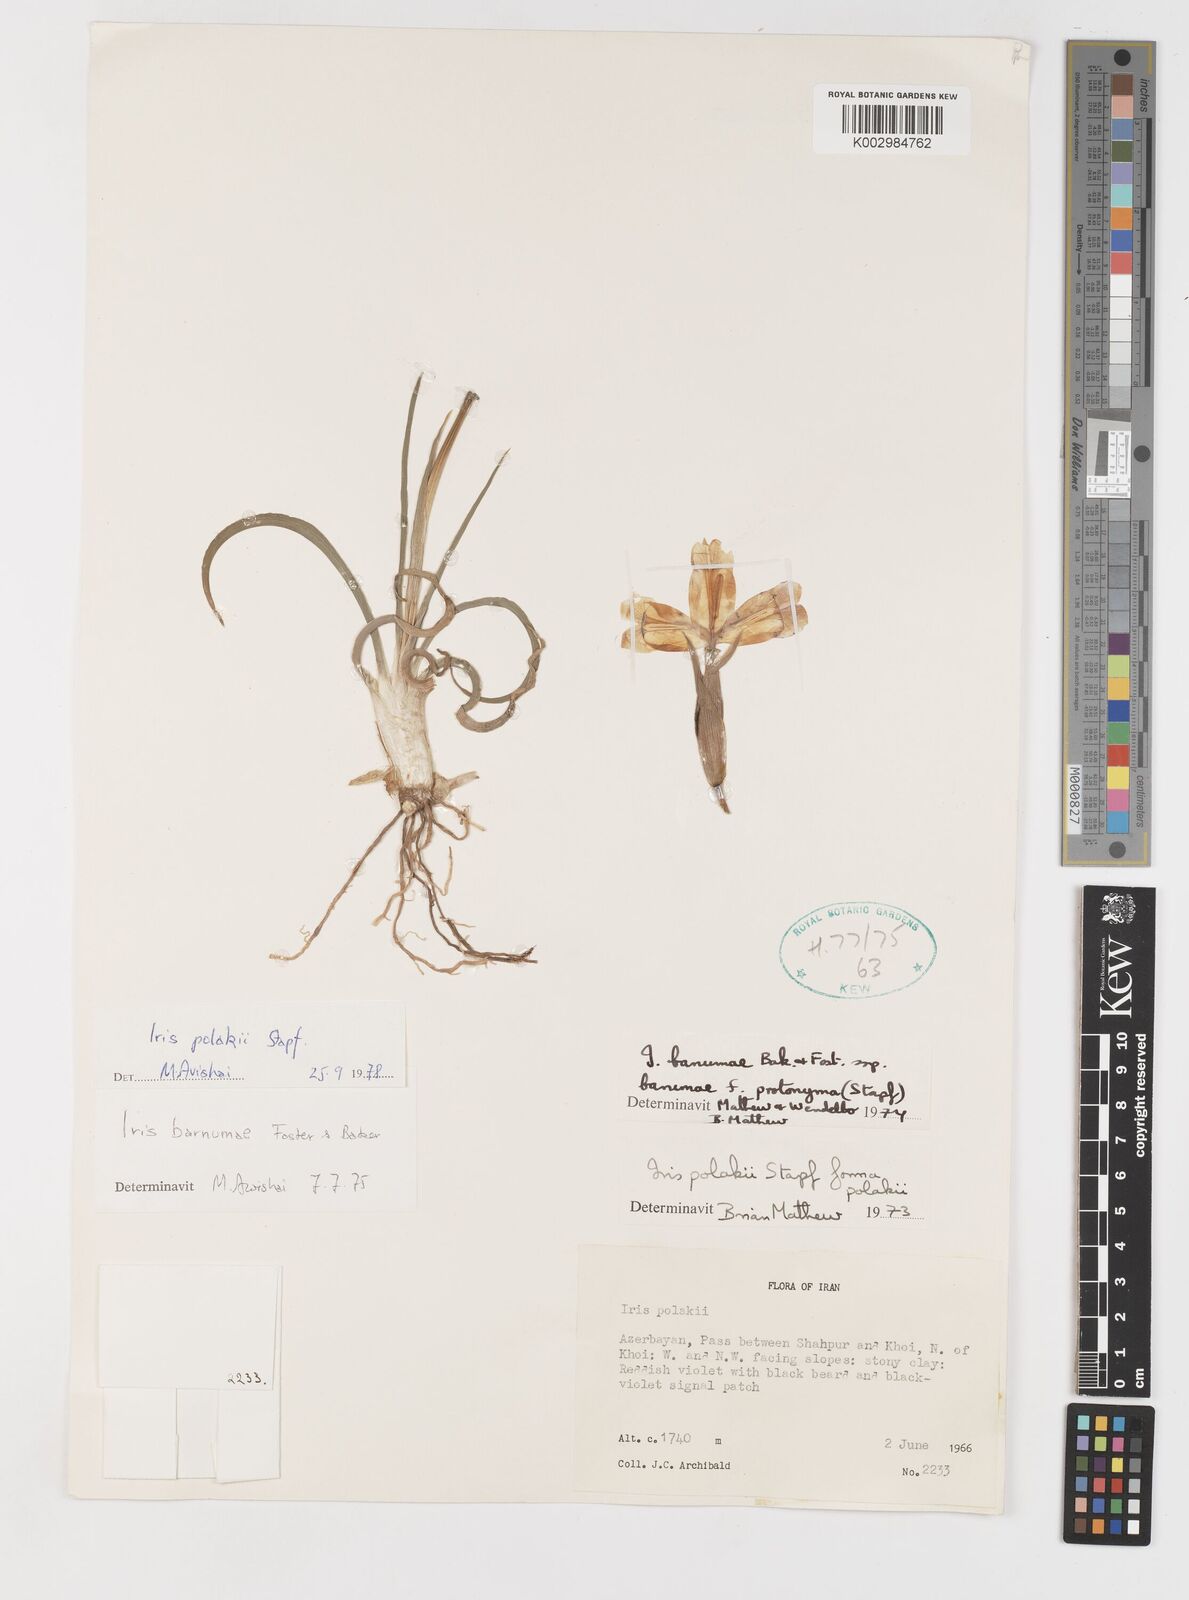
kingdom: Plantae
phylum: Tracheophyta
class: Liliopsida
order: Asparagales
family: Iridaceae
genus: Iris
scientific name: Iris polakii
